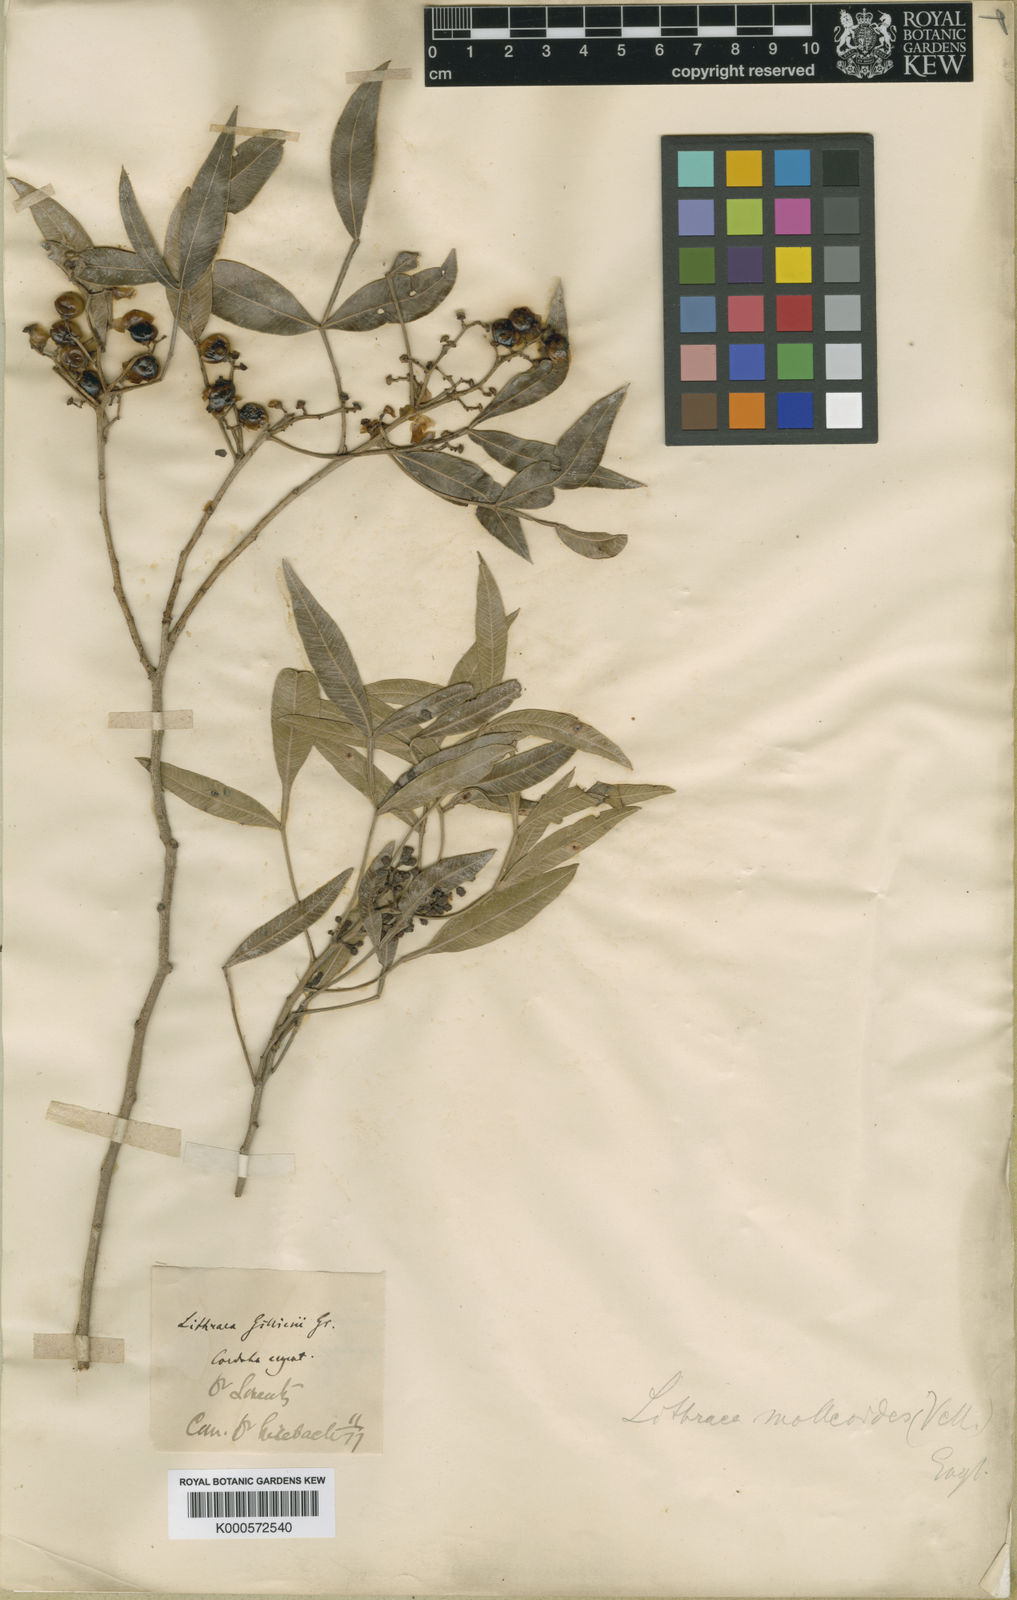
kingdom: Plantae
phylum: Tracheophyta
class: Magnoliopsida
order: Sapindales
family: Anacardiaceae
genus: Lithraea
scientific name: Lithraea molleoides
